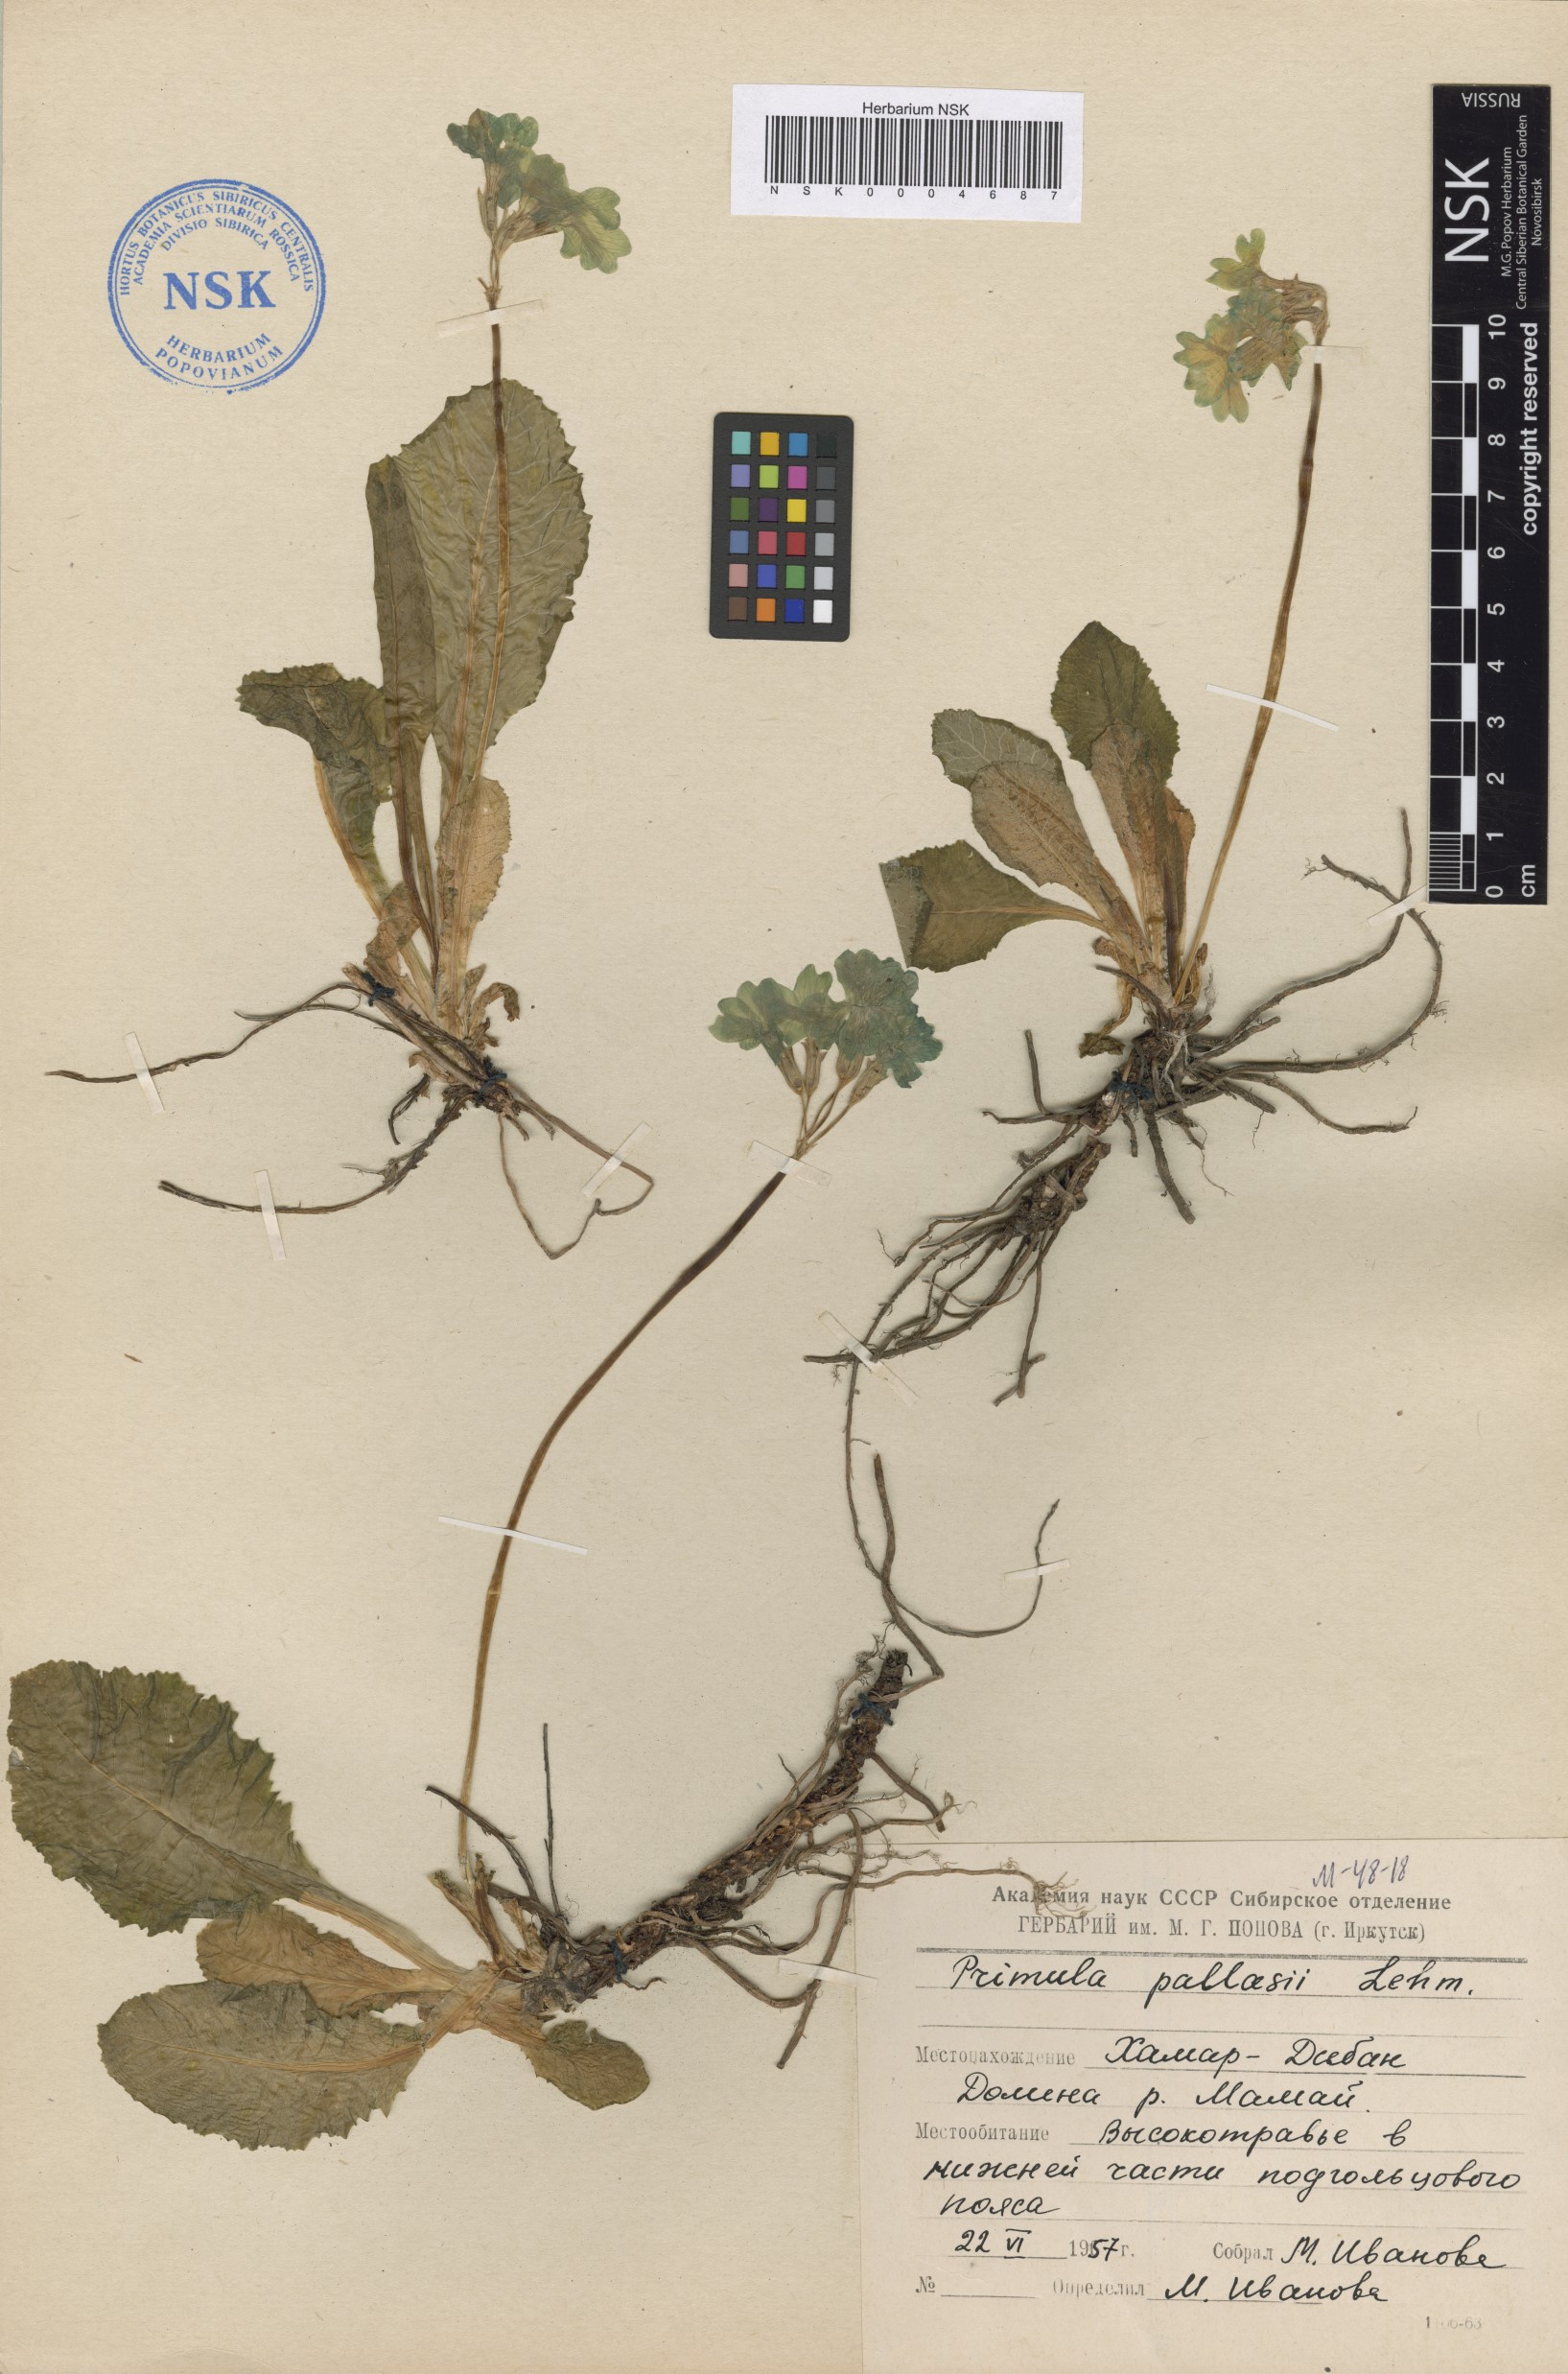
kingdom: Plantae
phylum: Tracheophyta
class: Magnoliopsida
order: Ericales
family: Primulaceae
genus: Primula
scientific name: Primula elatior
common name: Oxlip
